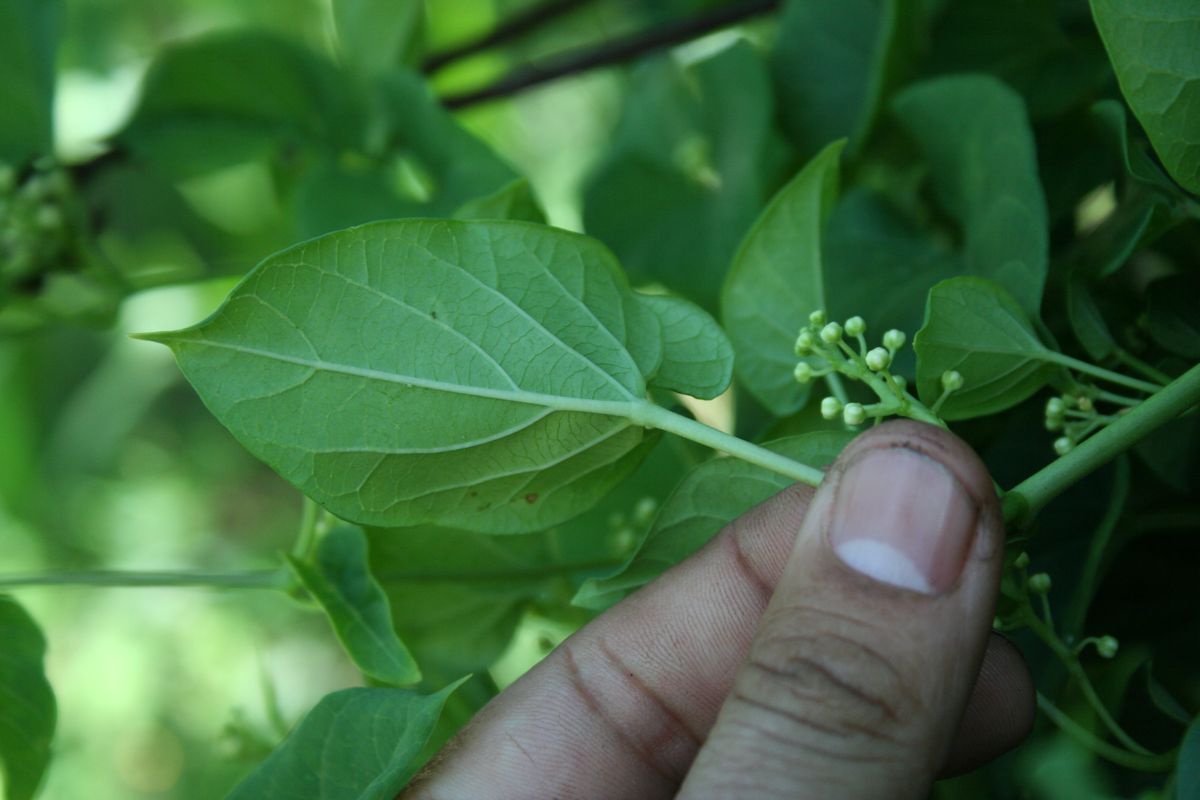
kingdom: Plantae
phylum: Tracheophyta
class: Magnoliopsida
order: Gentianales
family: Apocynaceae
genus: Cynanchum
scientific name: Cynanchum rensonii
